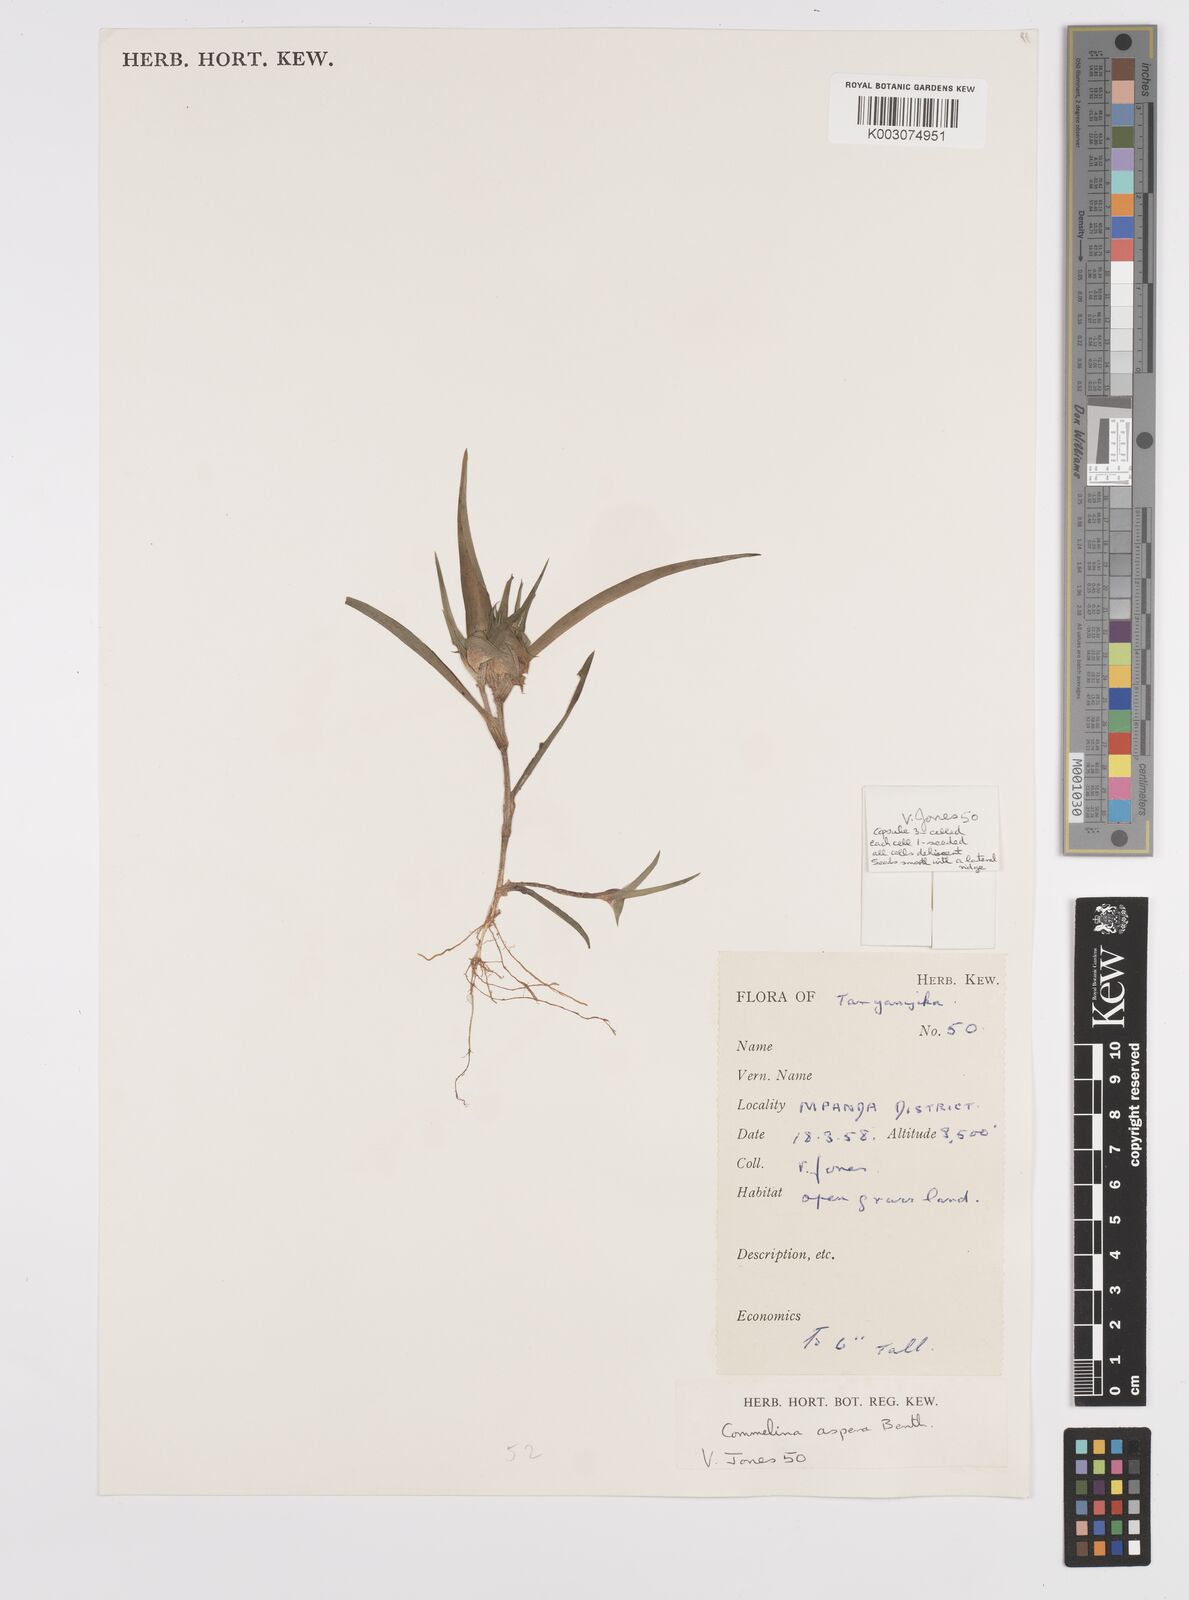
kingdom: Plantae
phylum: Tracheophyta
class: Liliopsida
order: Commelinales
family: Commelinaceae
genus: Commelina
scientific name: Commelina aspera
